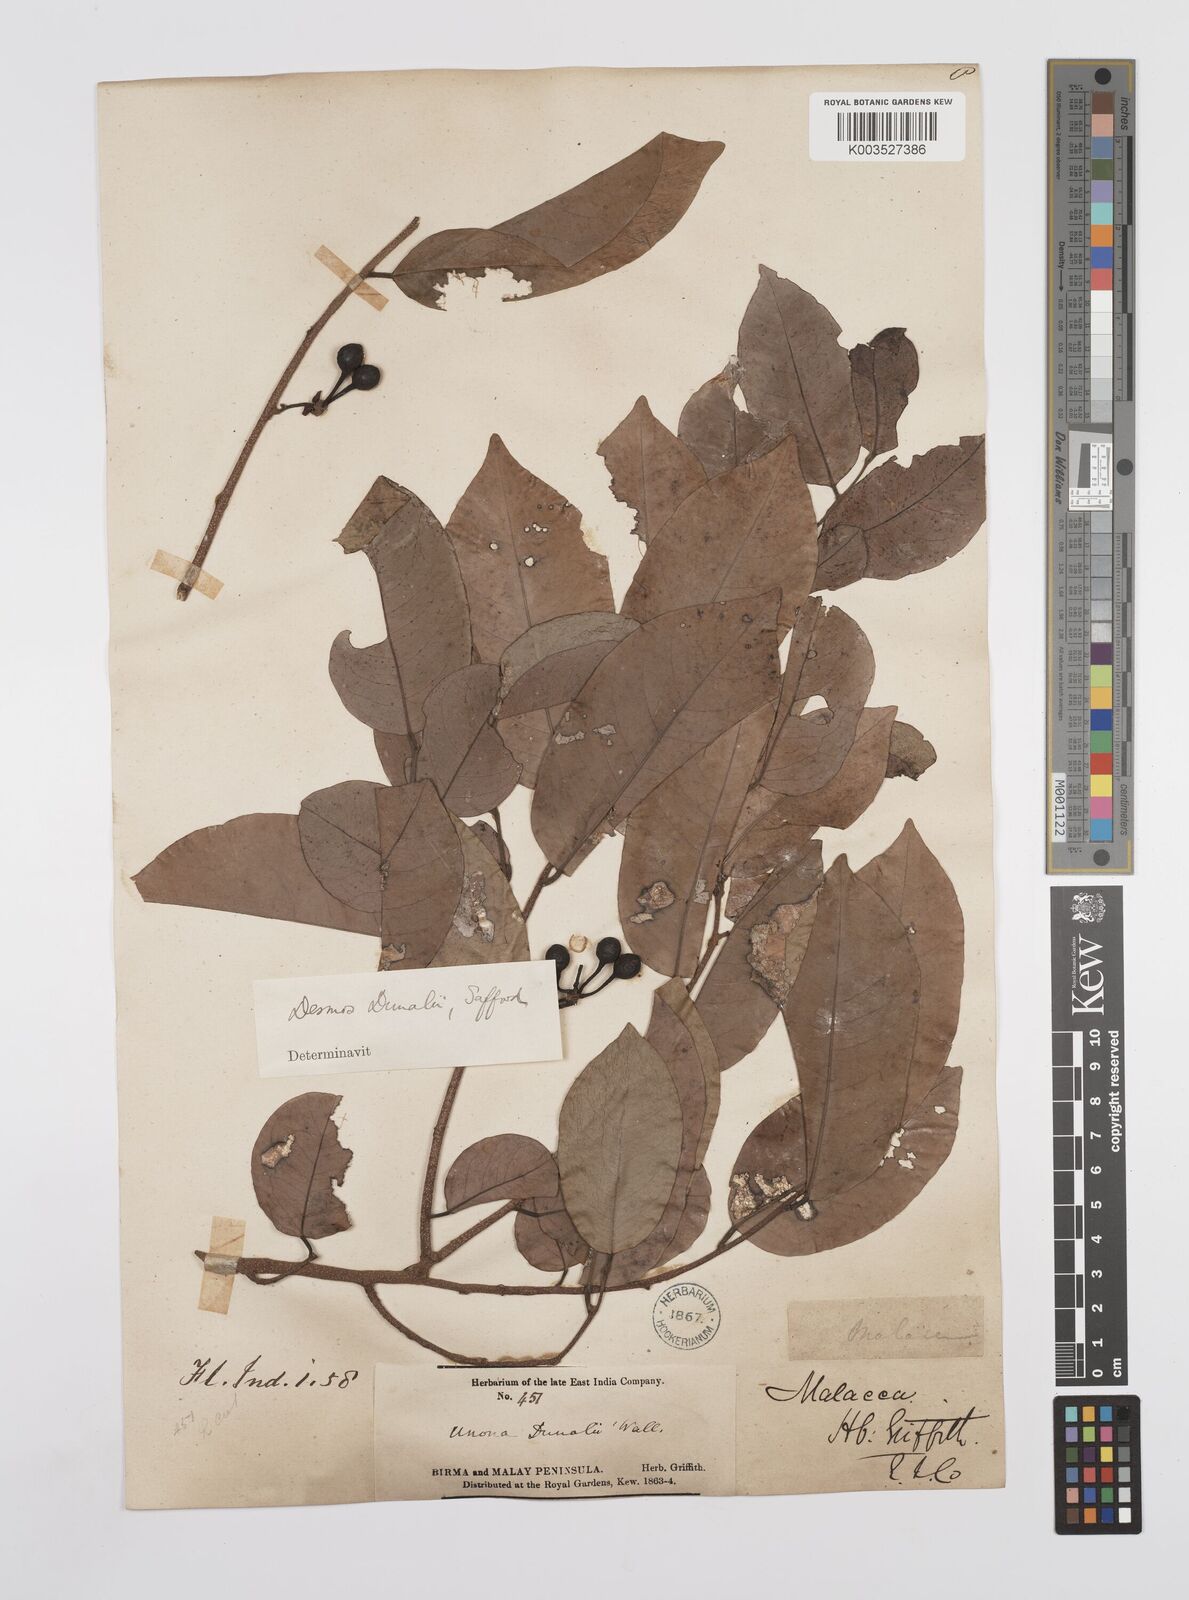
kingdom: Plantae
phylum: Tracheophyta
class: Magnoliopsida
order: Magnoliales
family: Annonaceae
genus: Desmos
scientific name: Desmos dunalii
